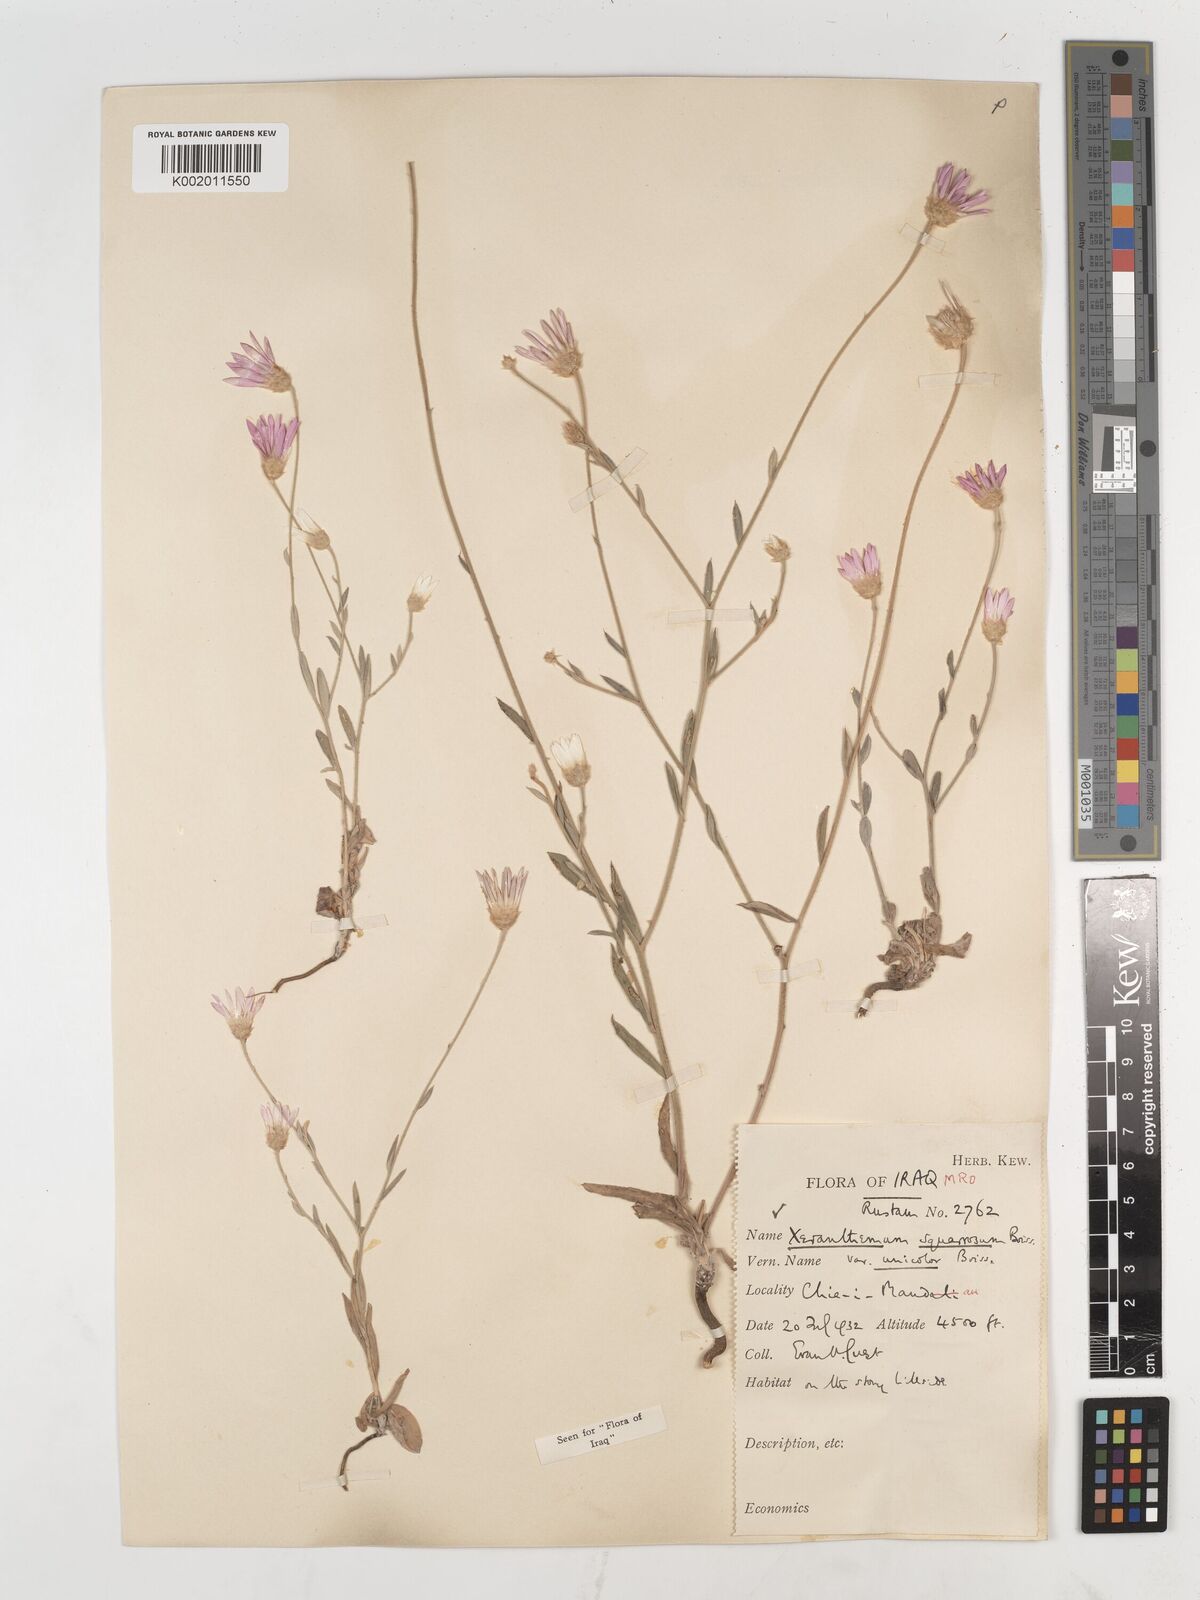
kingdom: Plantae
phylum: Tracheophyta
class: Magnoliopsida
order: Asterales
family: Asteraceae
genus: Xeranthemum
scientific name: Xeranthemum annuum
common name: Immortelle
